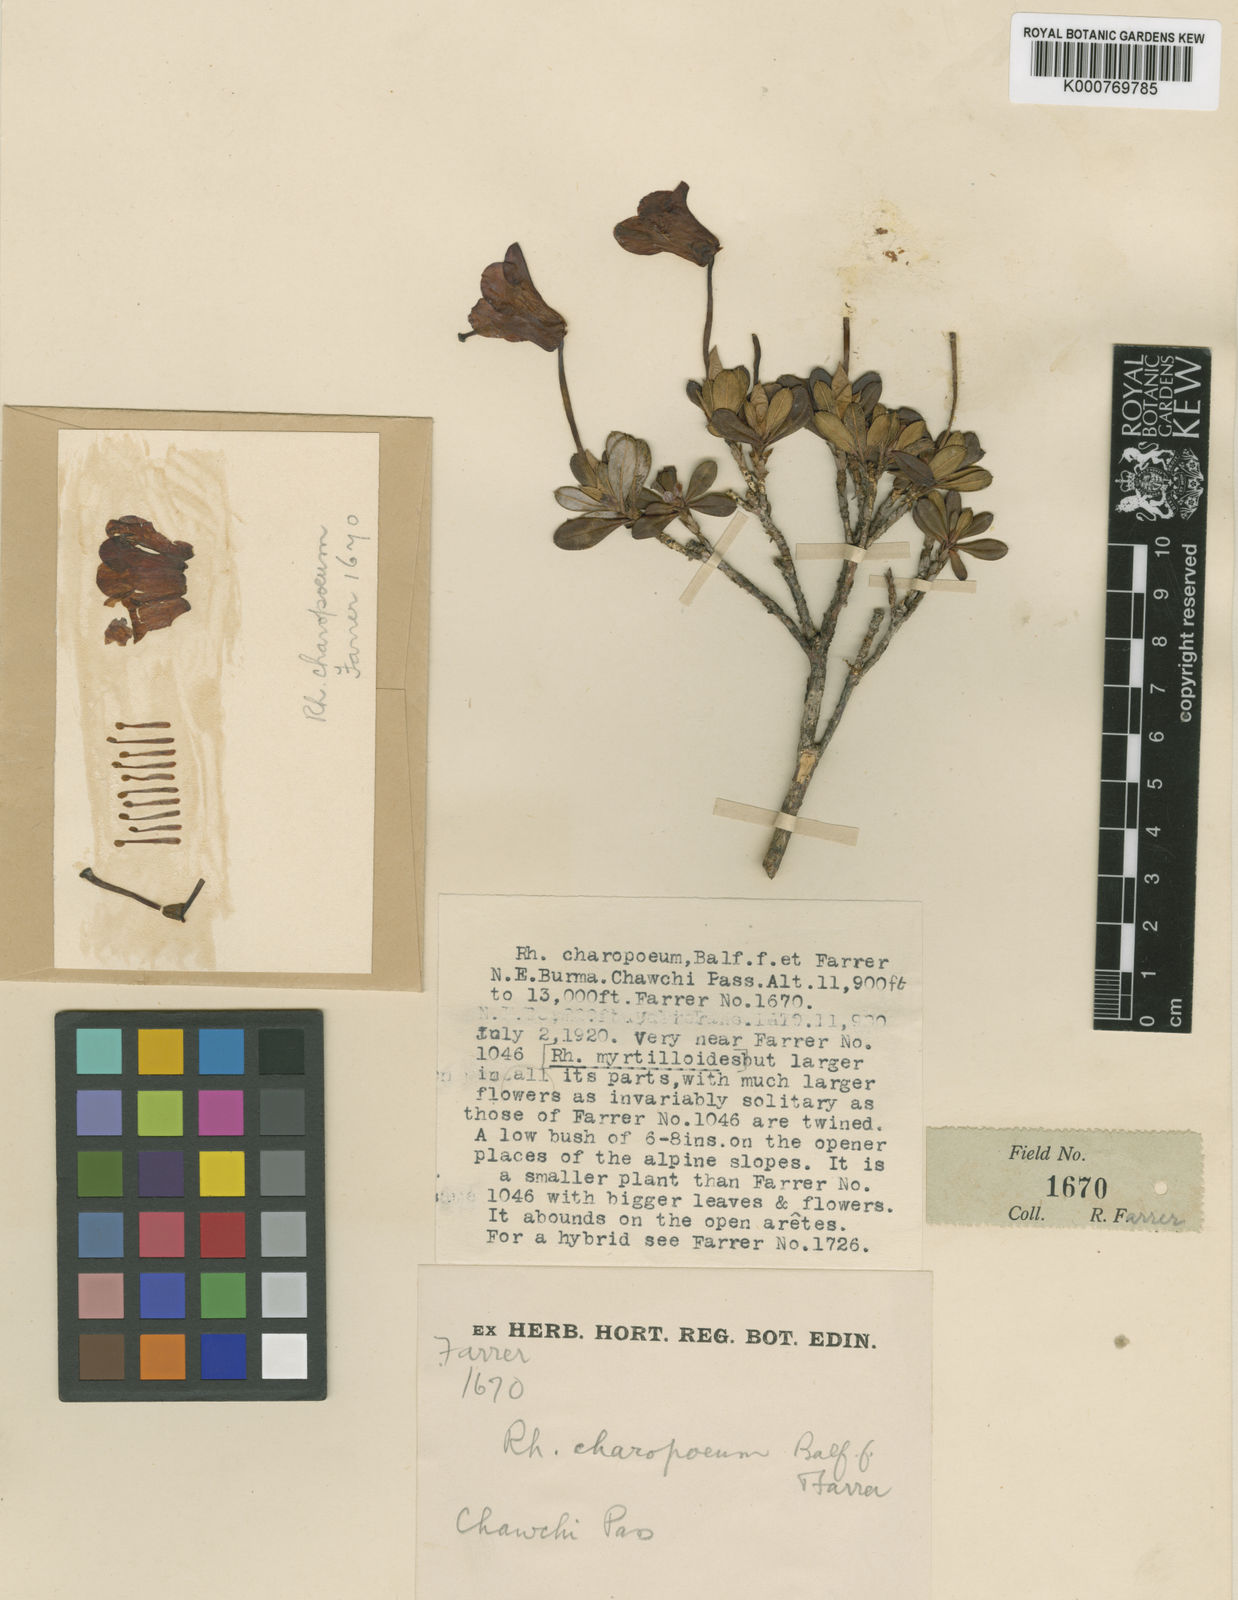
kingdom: Plantae
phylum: Tracheophyta
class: Magnoliopsida
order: Ericales
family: Ericaceae
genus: Rhododendron
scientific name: Rhododendron campylogynum
